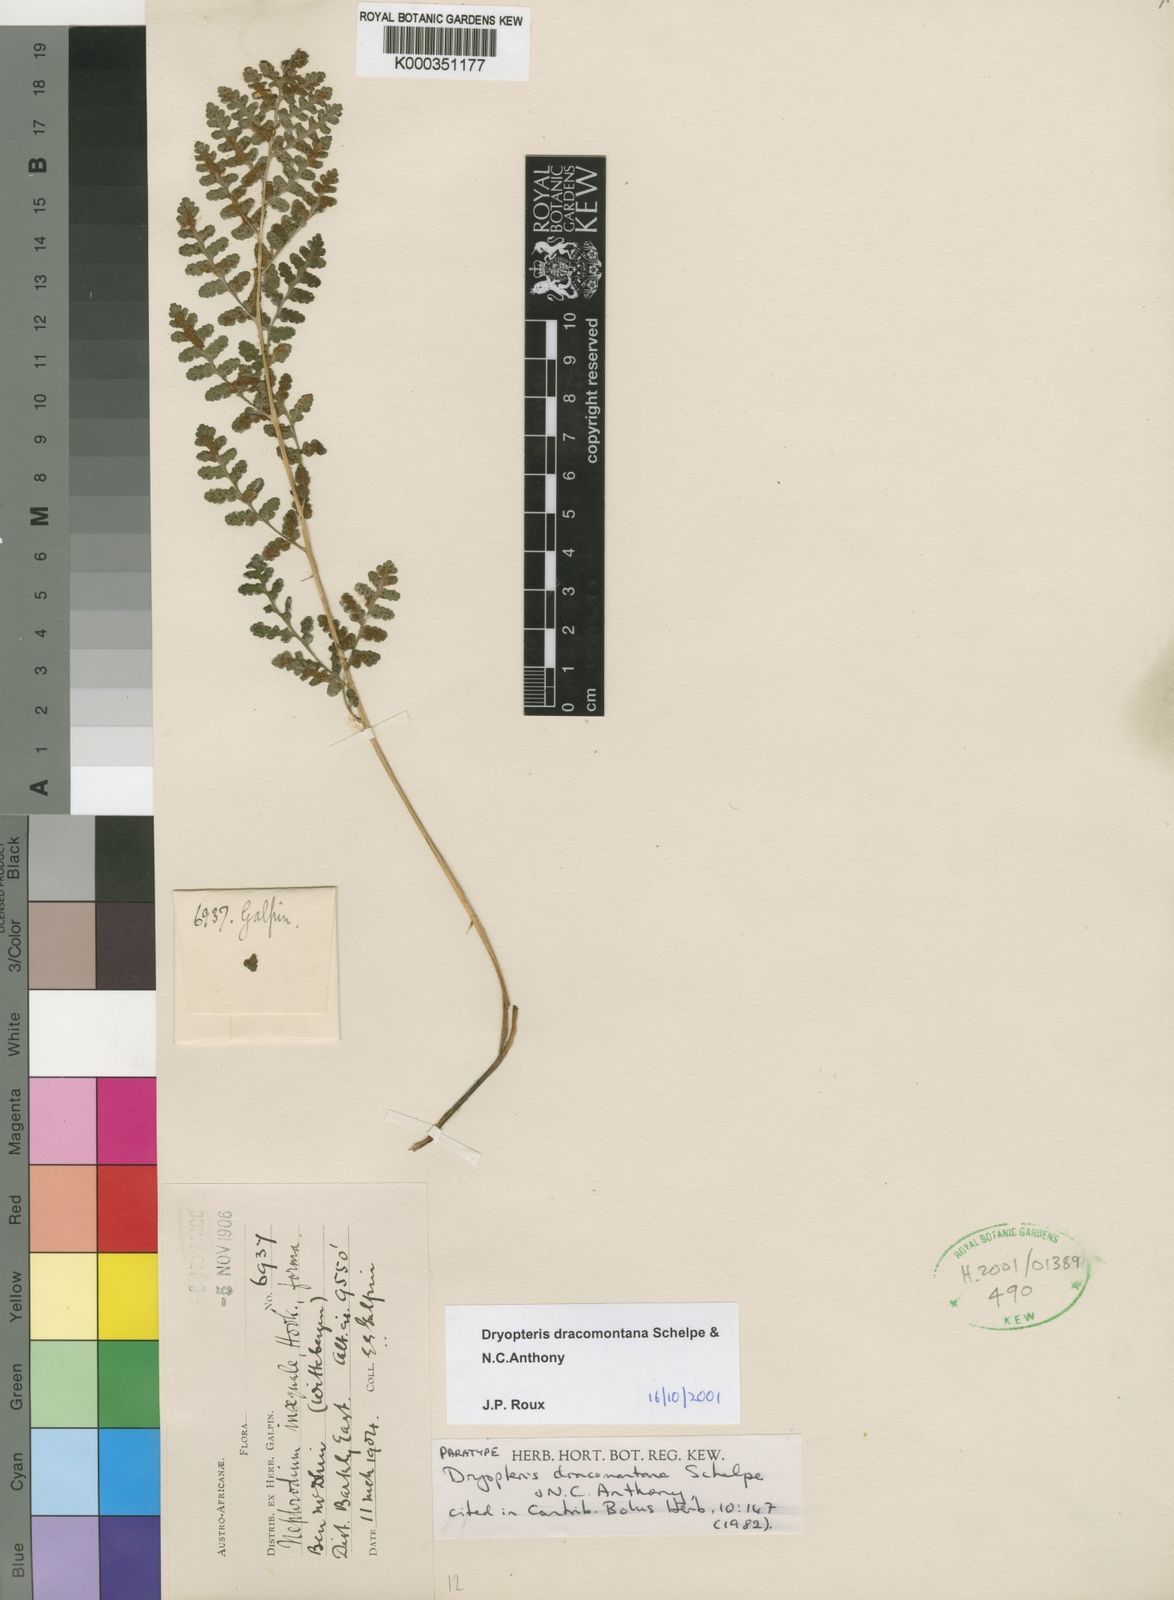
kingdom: Plantae
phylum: Tracheophyta
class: Polypodiopsida
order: Polypodiales
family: Dryopteridaceae
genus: Dryopteris
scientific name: Dryopteris dracomontana
